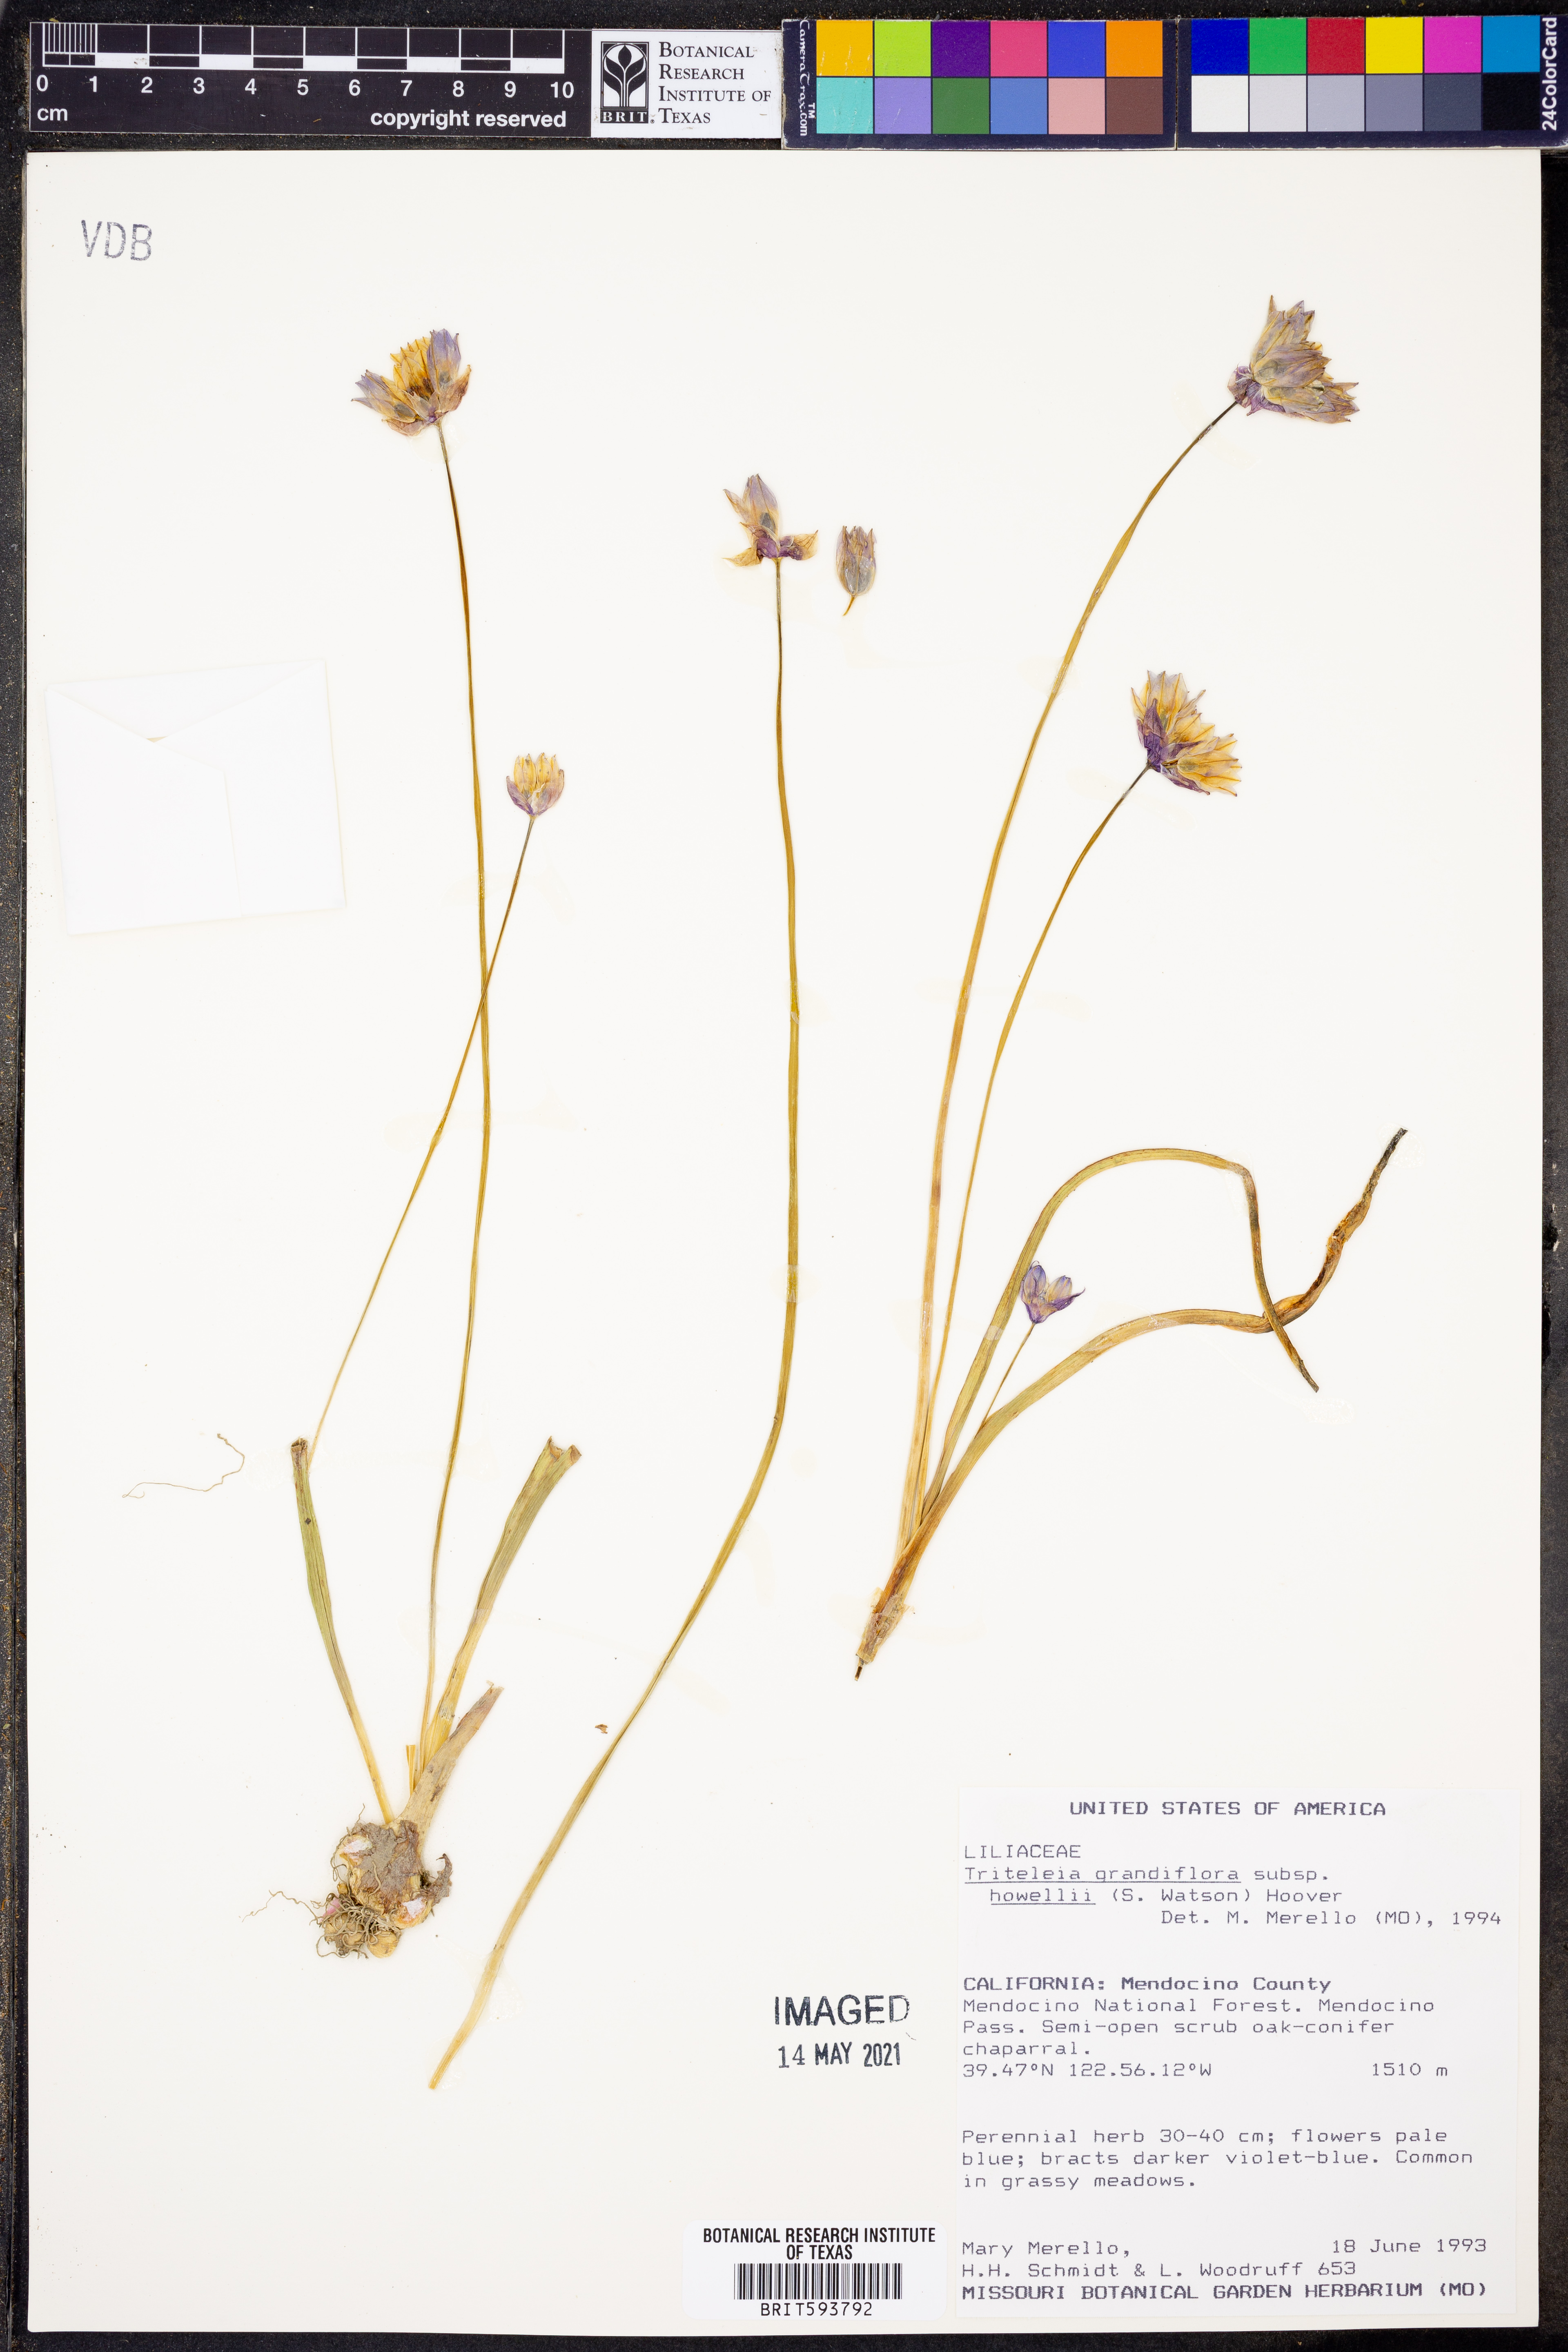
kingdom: Plantae
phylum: Tracheophyta
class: Liliopsida
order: Asparagales
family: Asparagaceae
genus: Triteleia
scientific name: Triteleia grandiflora
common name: Wild hyacinth
